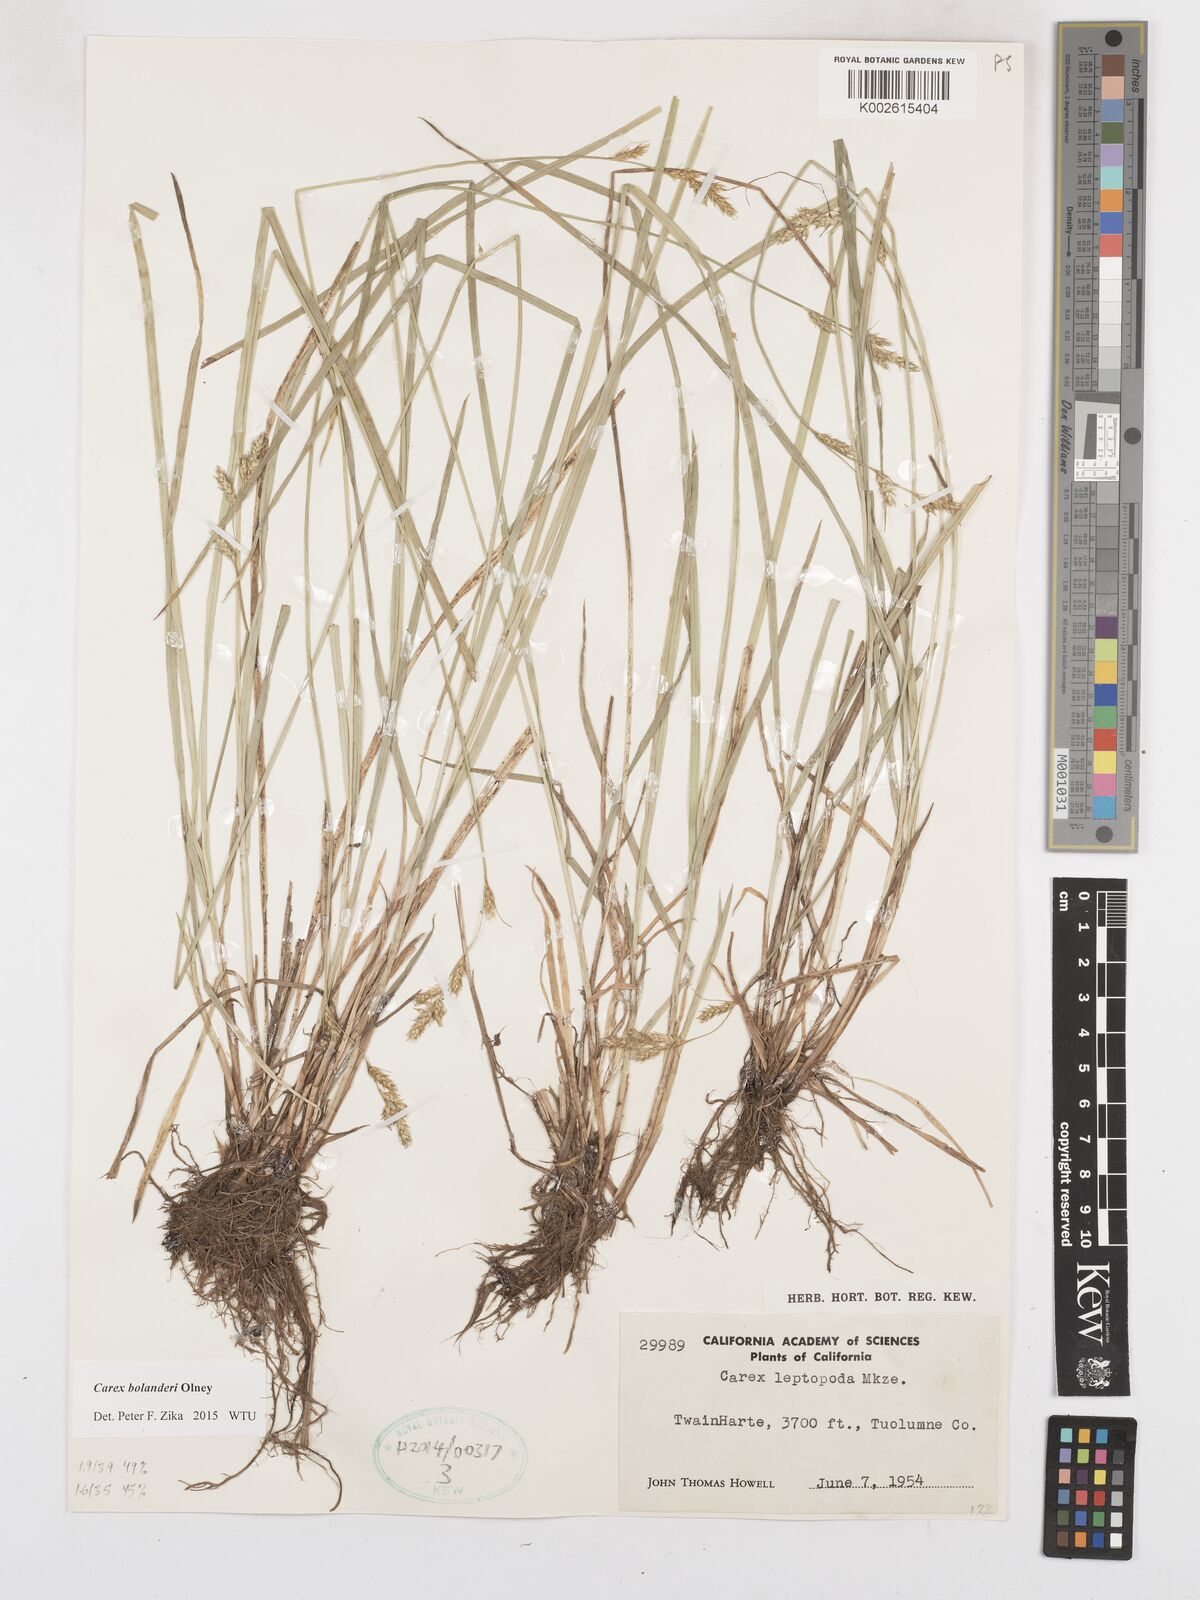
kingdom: Plantae
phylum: Tracheophyta
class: Liliopsida
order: Poales
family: Cyperaceae
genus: Carex
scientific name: Carex bolanderi
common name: Bolander's sedge
